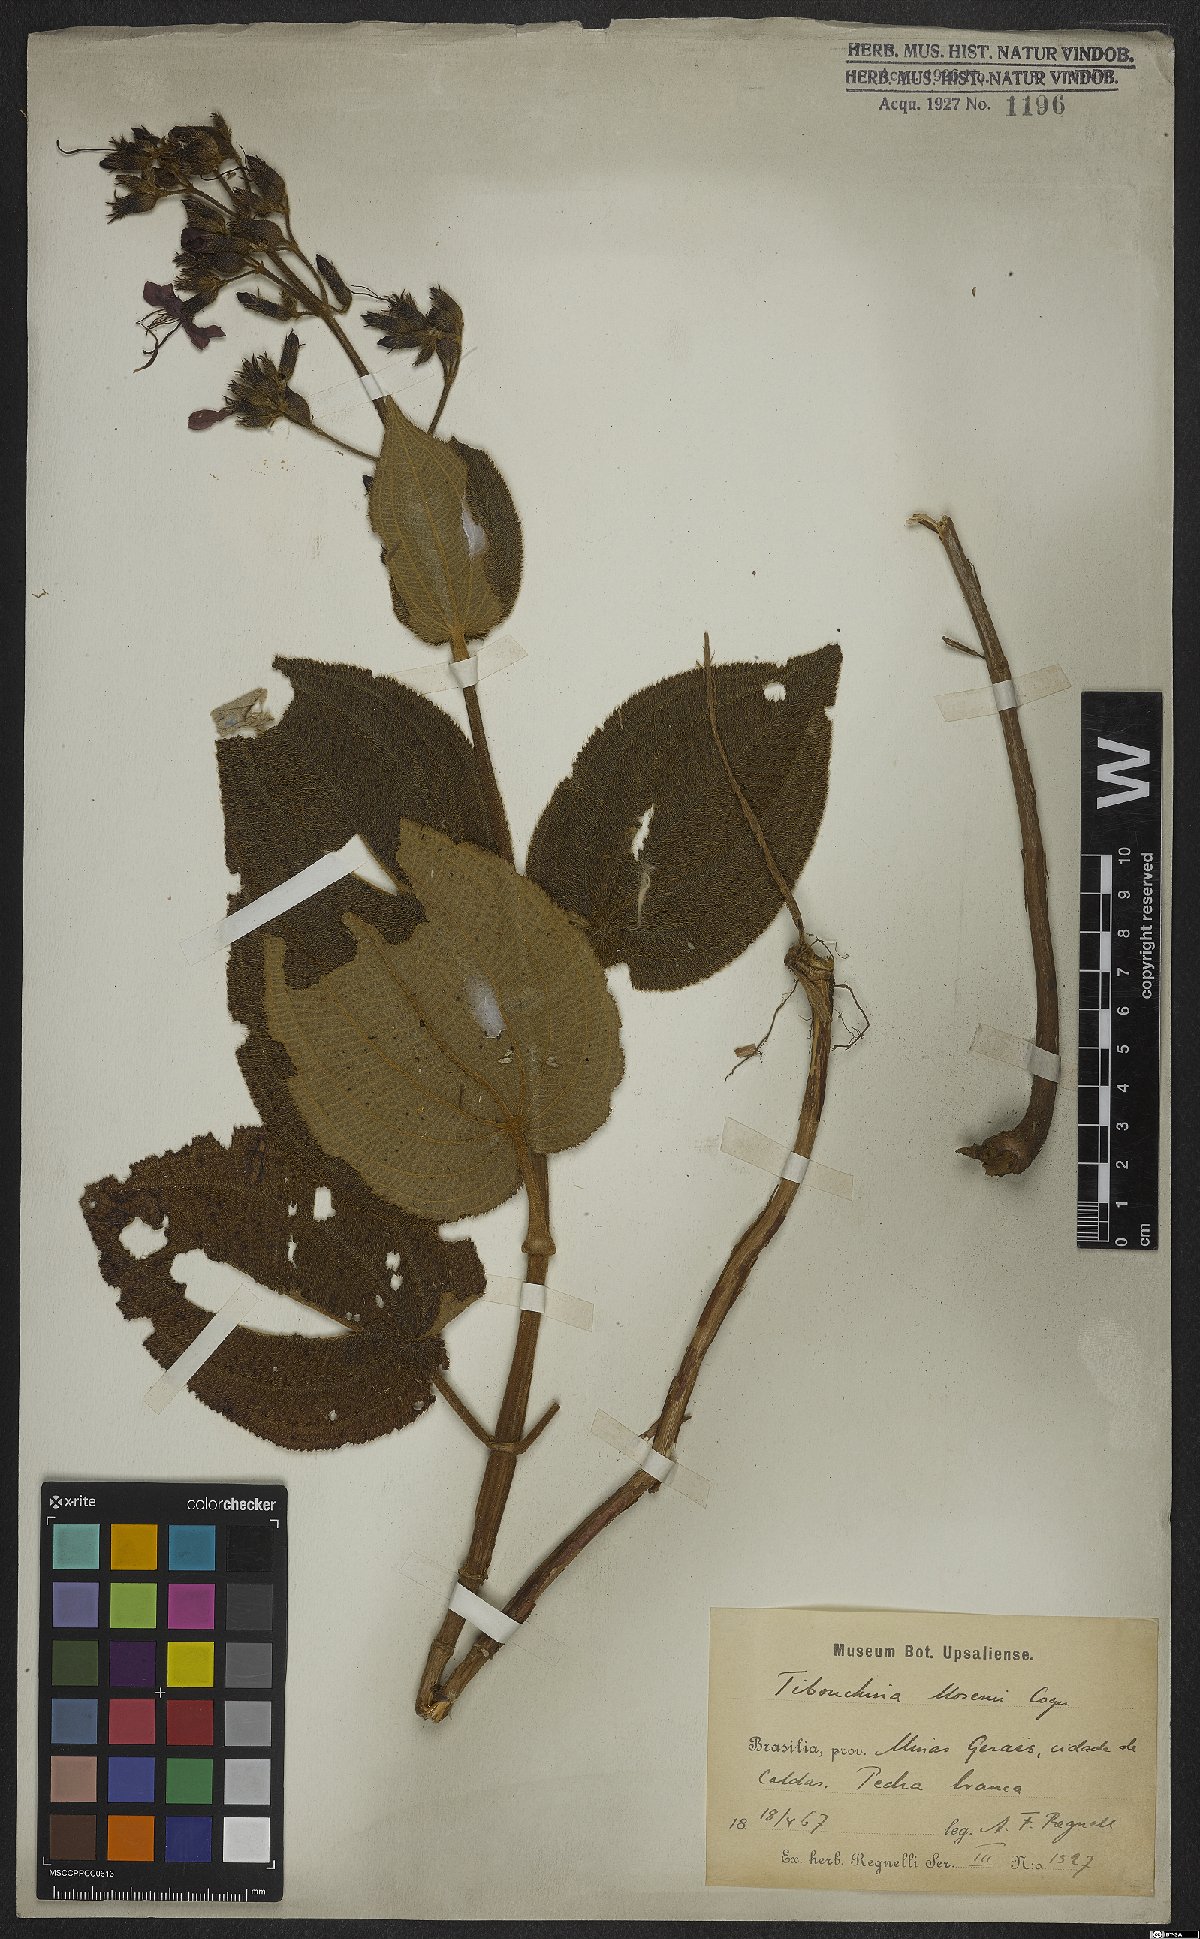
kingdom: Plantae
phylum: Tracheophyta
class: Magnoliopsida
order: Myrtales
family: Melastomataceae
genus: Pleroma
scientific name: Pleroma mosenii
